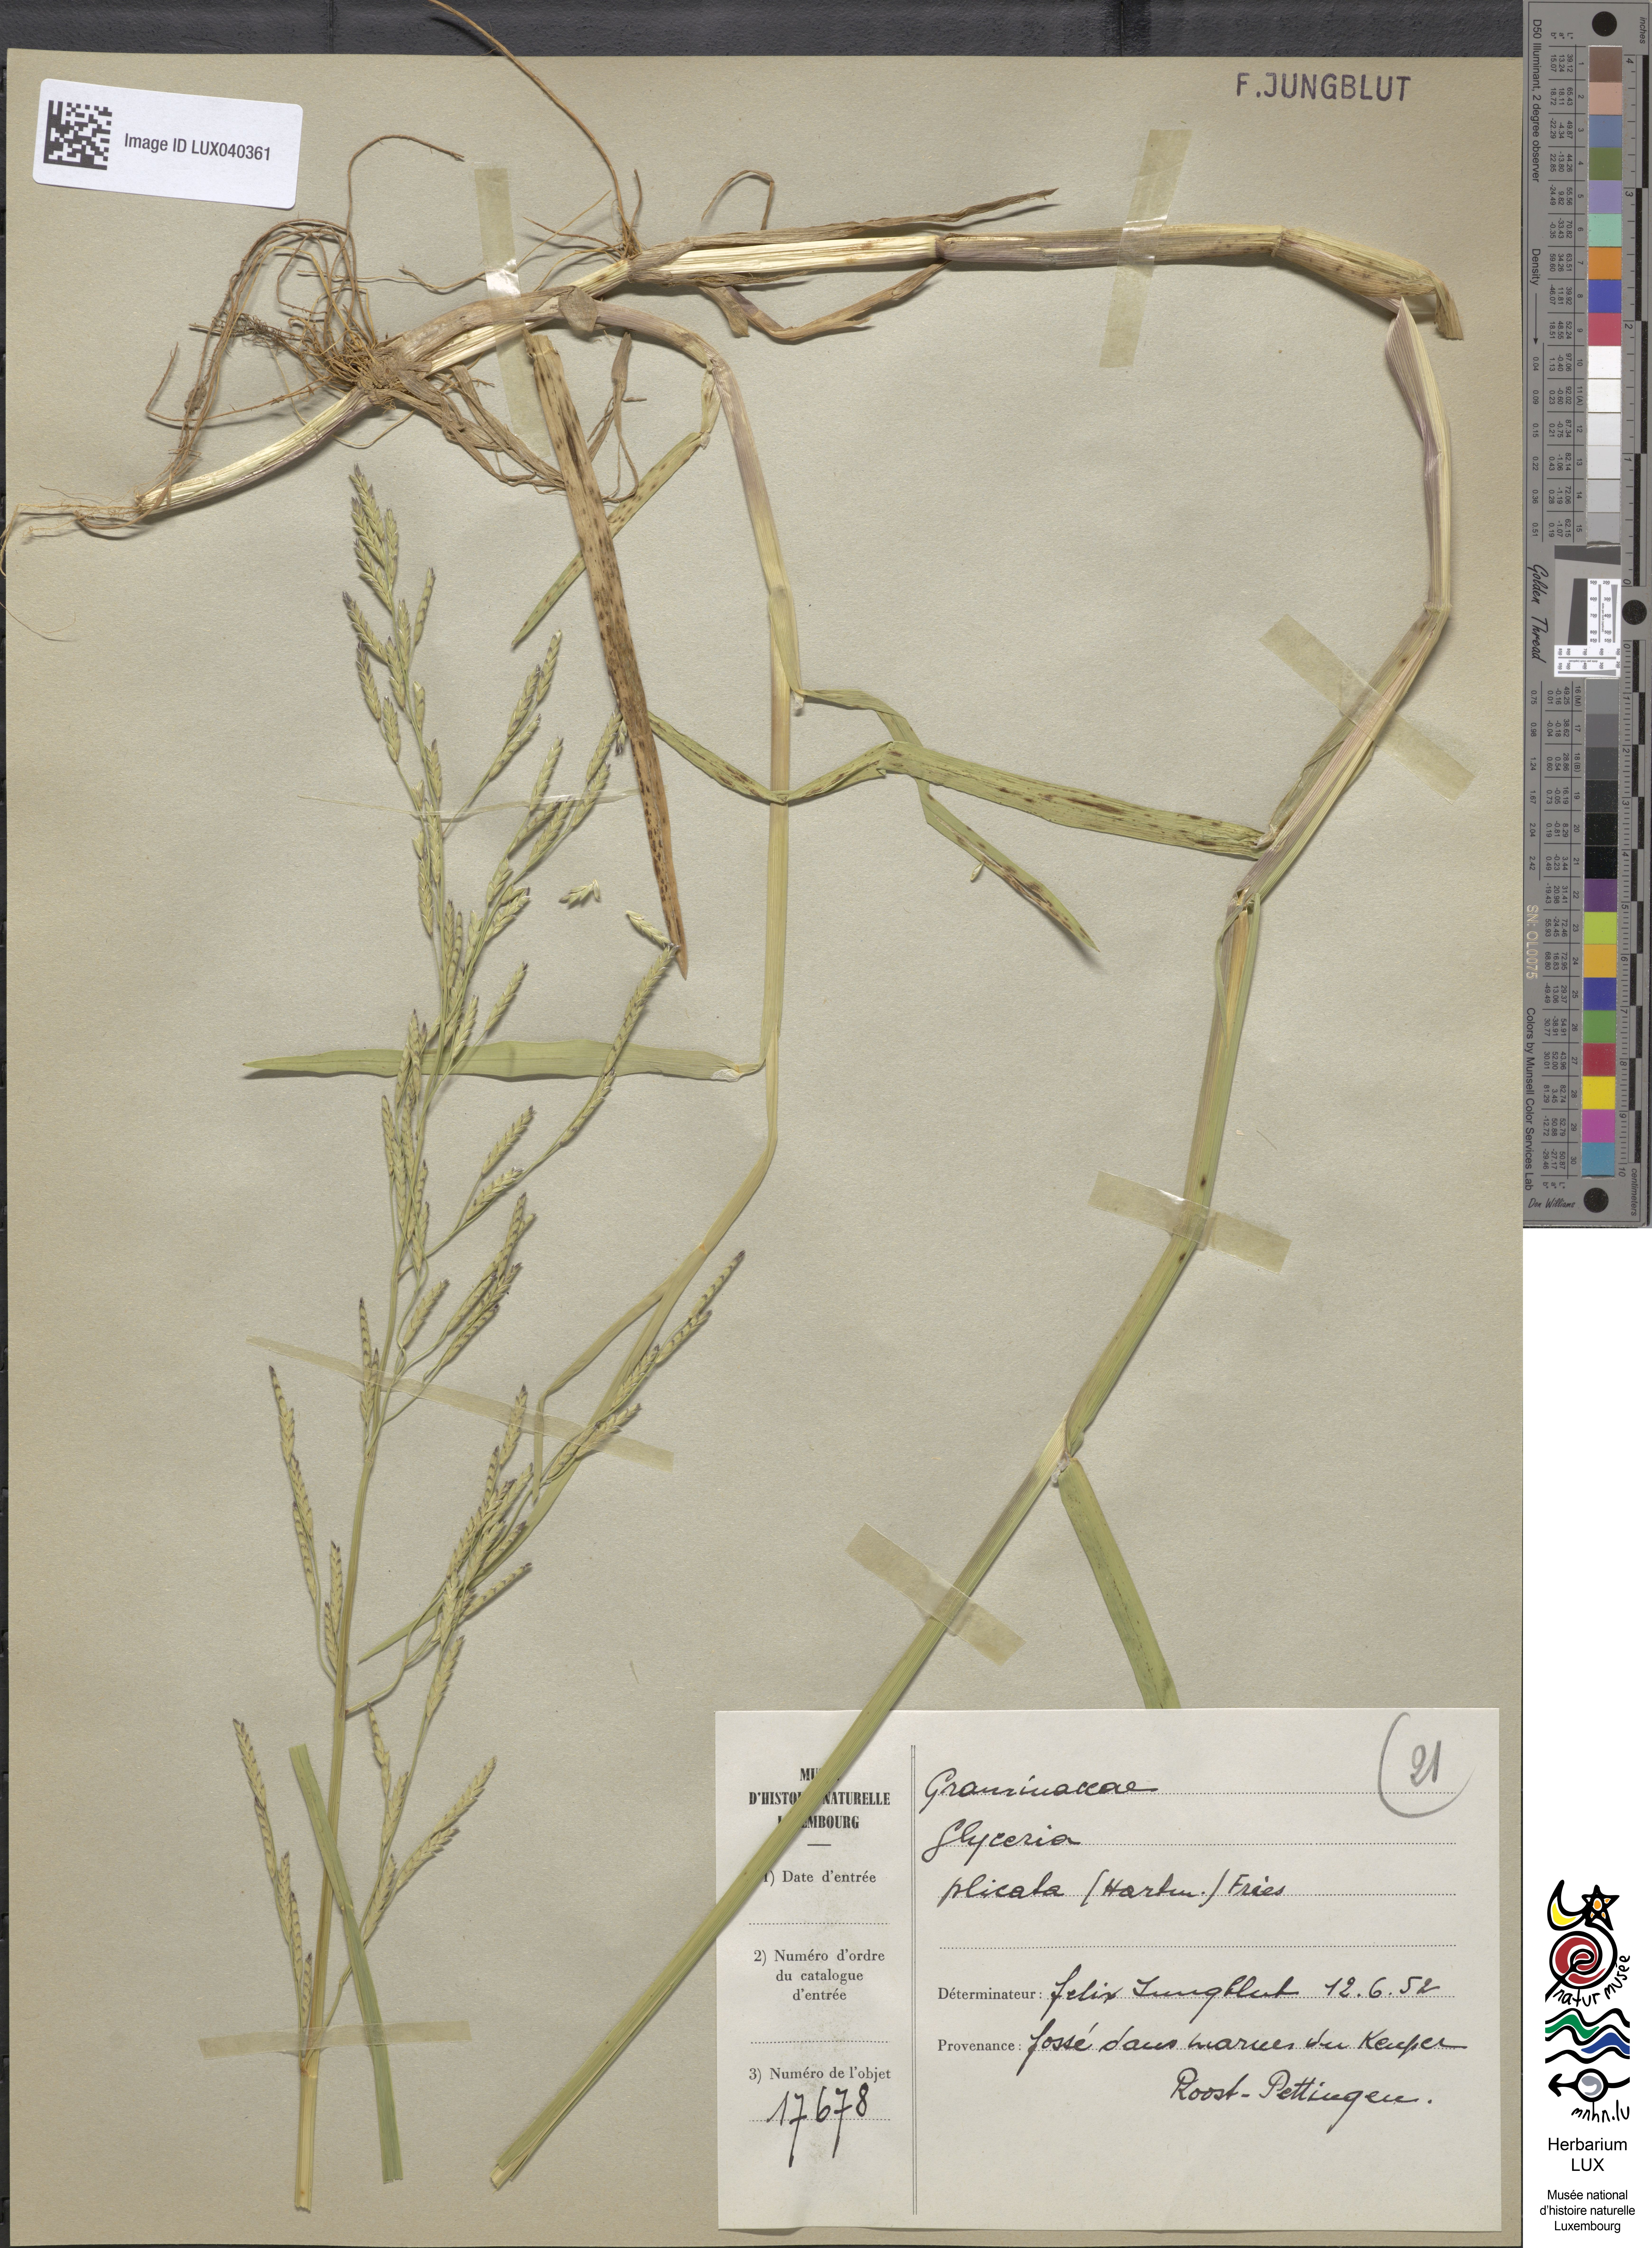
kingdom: Plantae
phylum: Tracheophyta
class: Liliopsida
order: Poales
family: Poaceae
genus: Glyceria
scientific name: Glyceria notata
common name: Plicate sweet-grass
